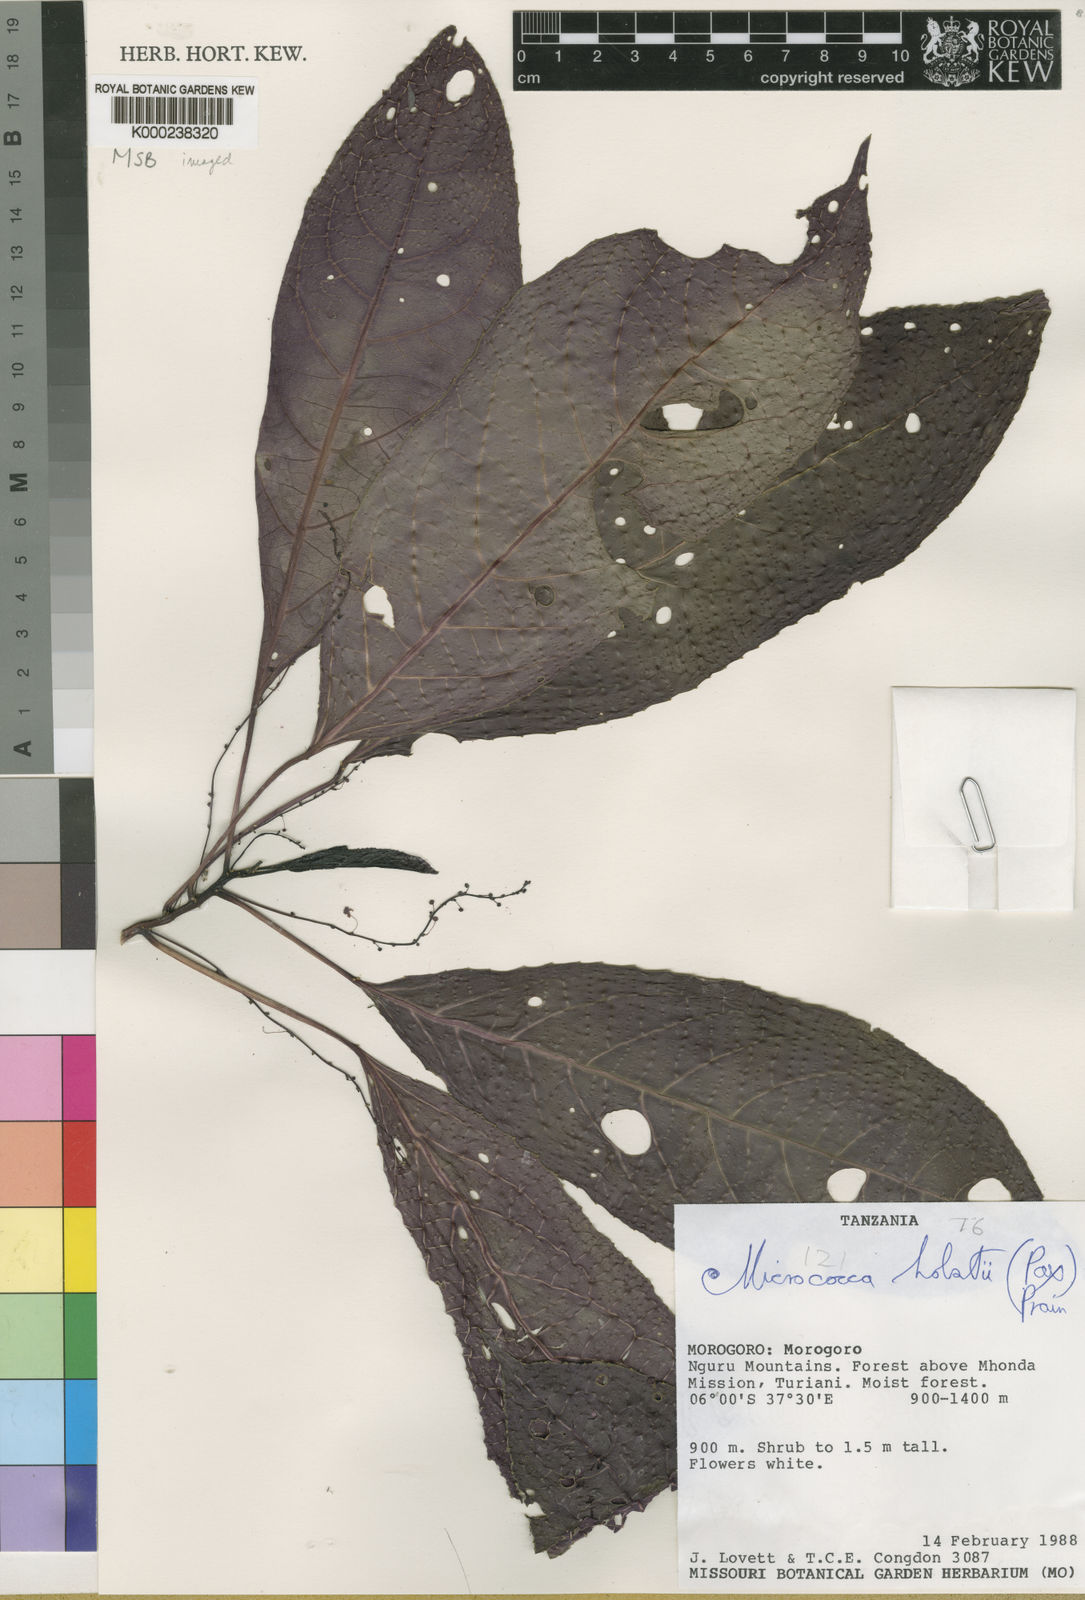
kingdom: Plantae
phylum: Tracheophyta
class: Magnoliopsida
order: Malpighiales
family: Euphorbiaceae
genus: Micrococca
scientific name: Micrococca holstii
